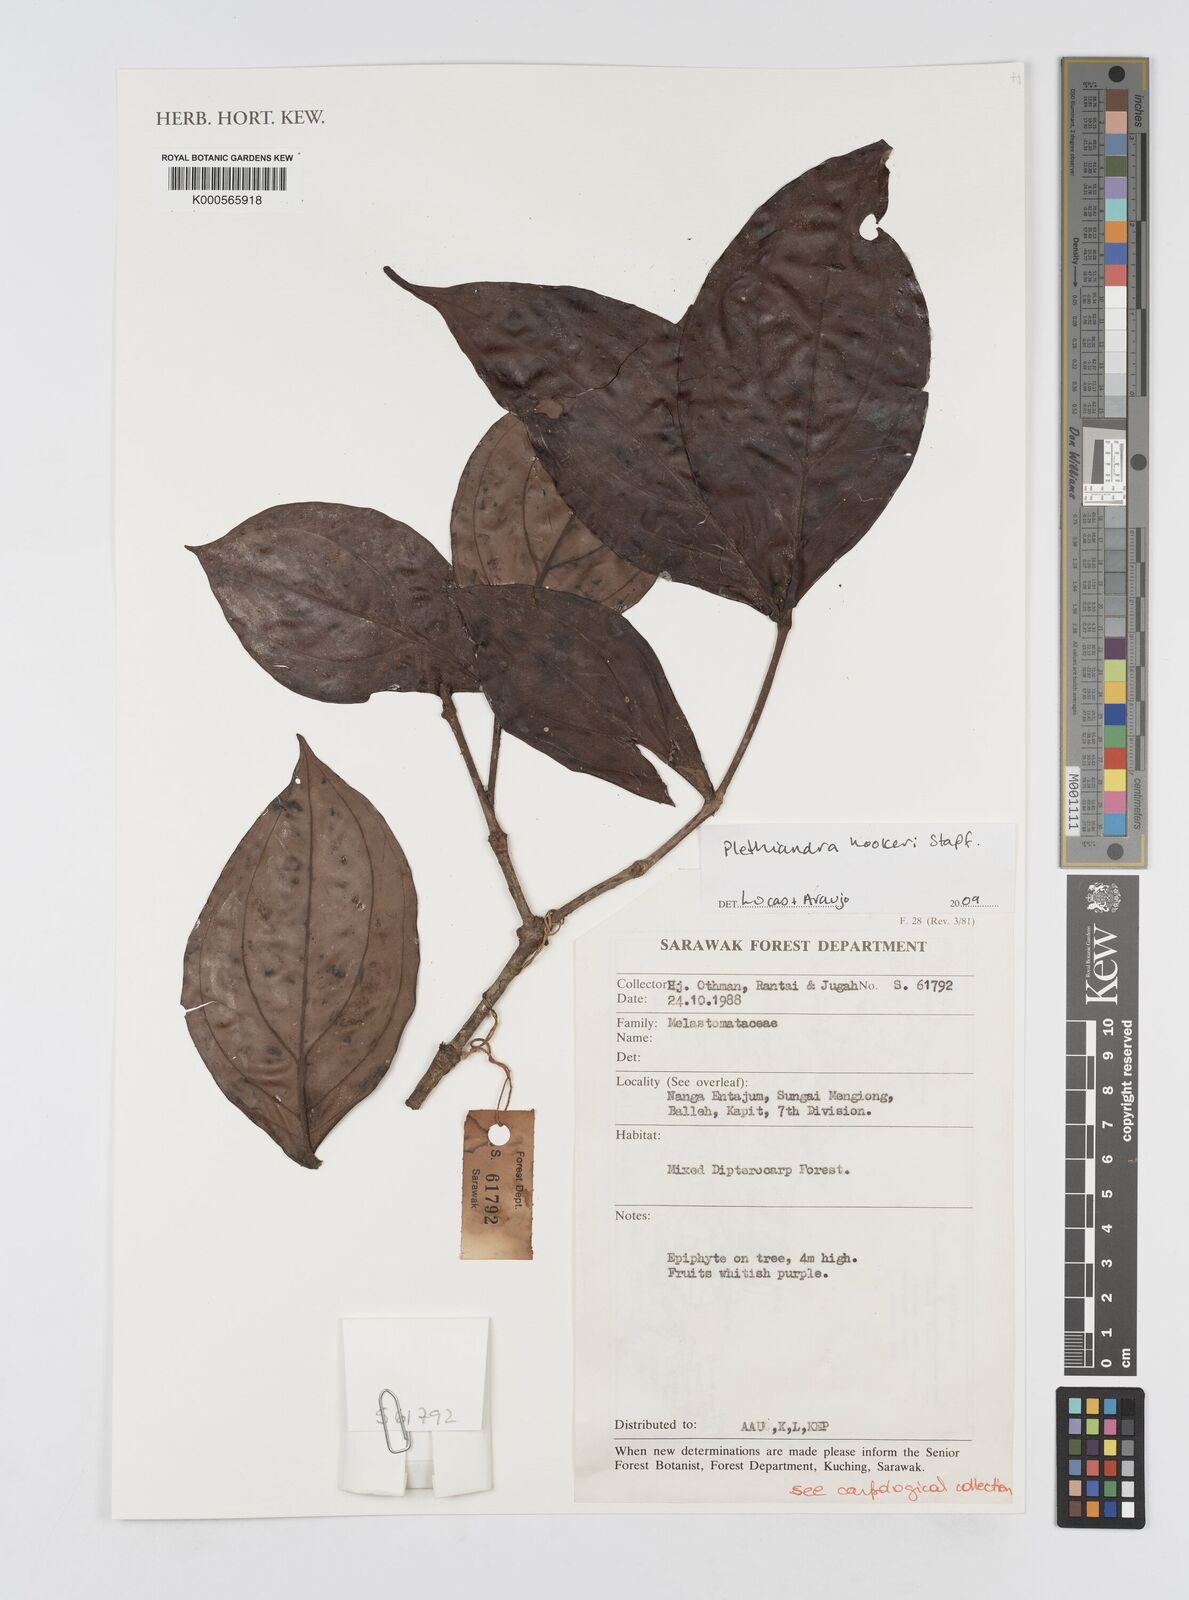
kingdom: Plantae
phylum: Tracheophyta
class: Magnoliopsida
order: Myrtales
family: Melastomataceae
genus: Plethiandra
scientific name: Plethiandra hookeri
